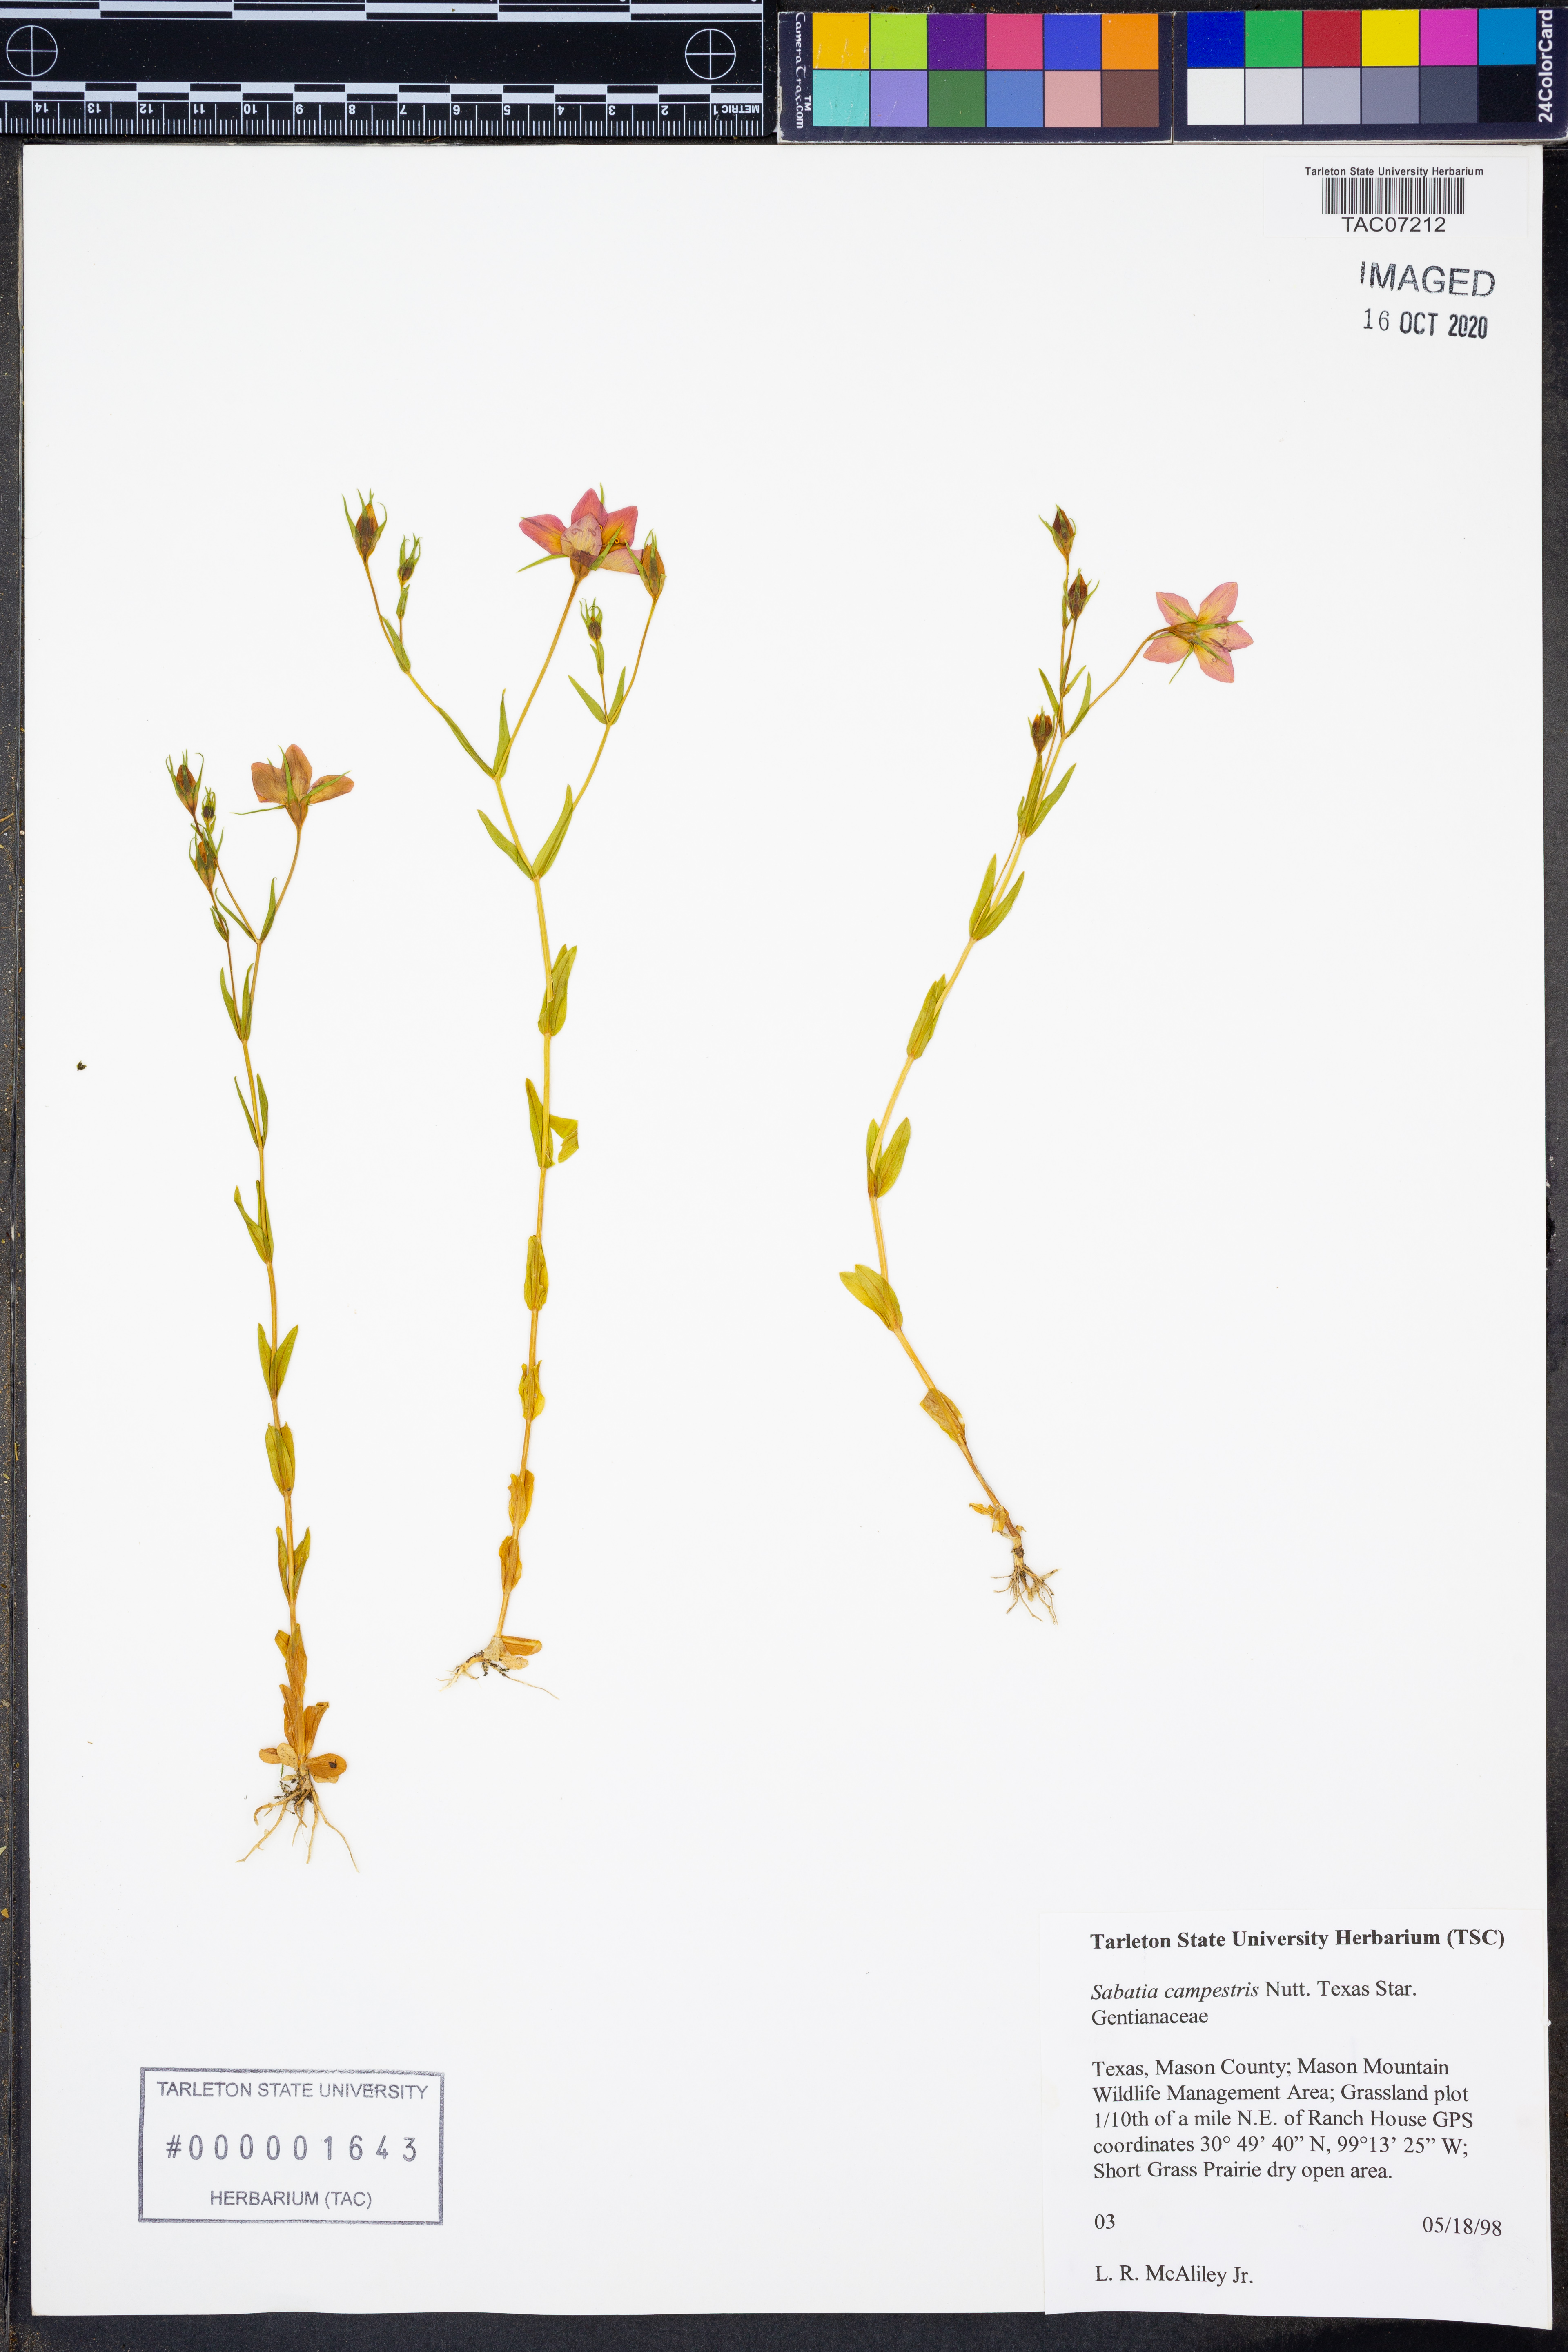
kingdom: Plantae
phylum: Tracheophyta
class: Magnoliopsida
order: Gentianales
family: Gentianaceae
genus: Sabatia
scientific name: Sabatia campestris
